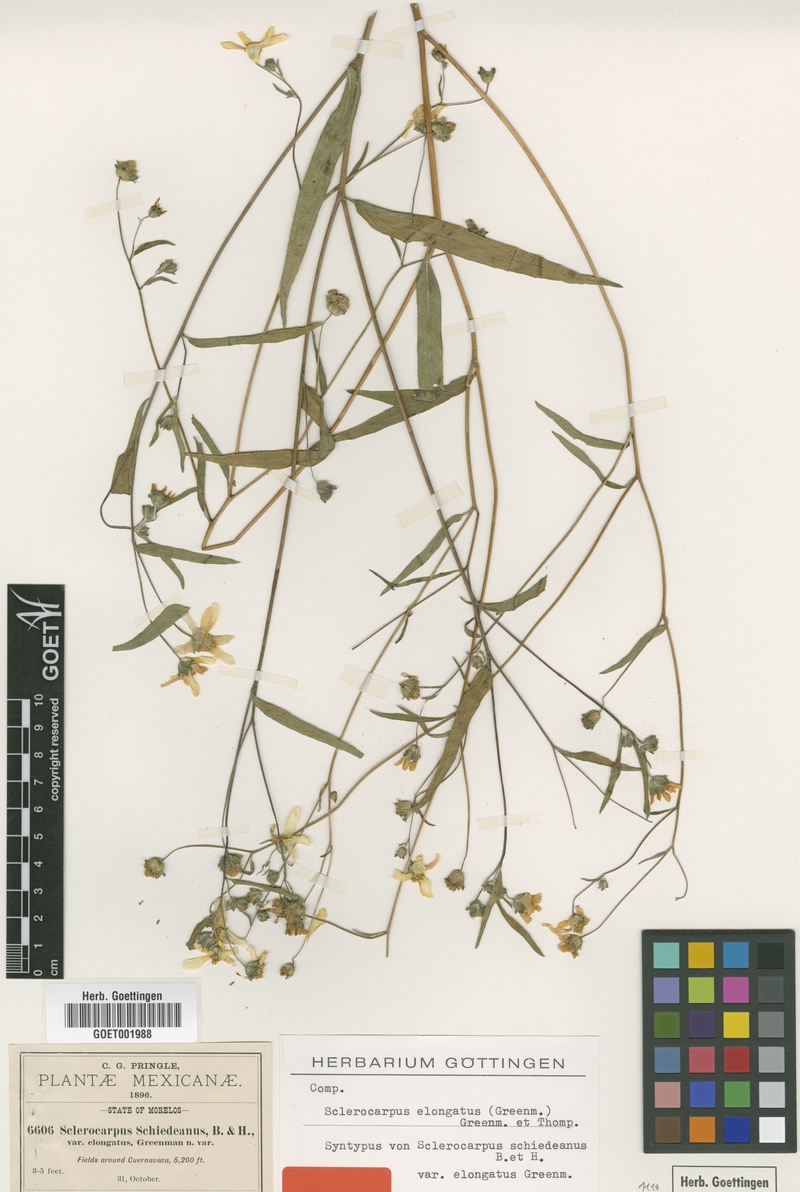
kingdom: Plantae
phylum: Tracheophyta
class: Magnoliopsida
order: Asterales
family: Asteraceae
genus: Aldama
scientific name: Aldama dentata
